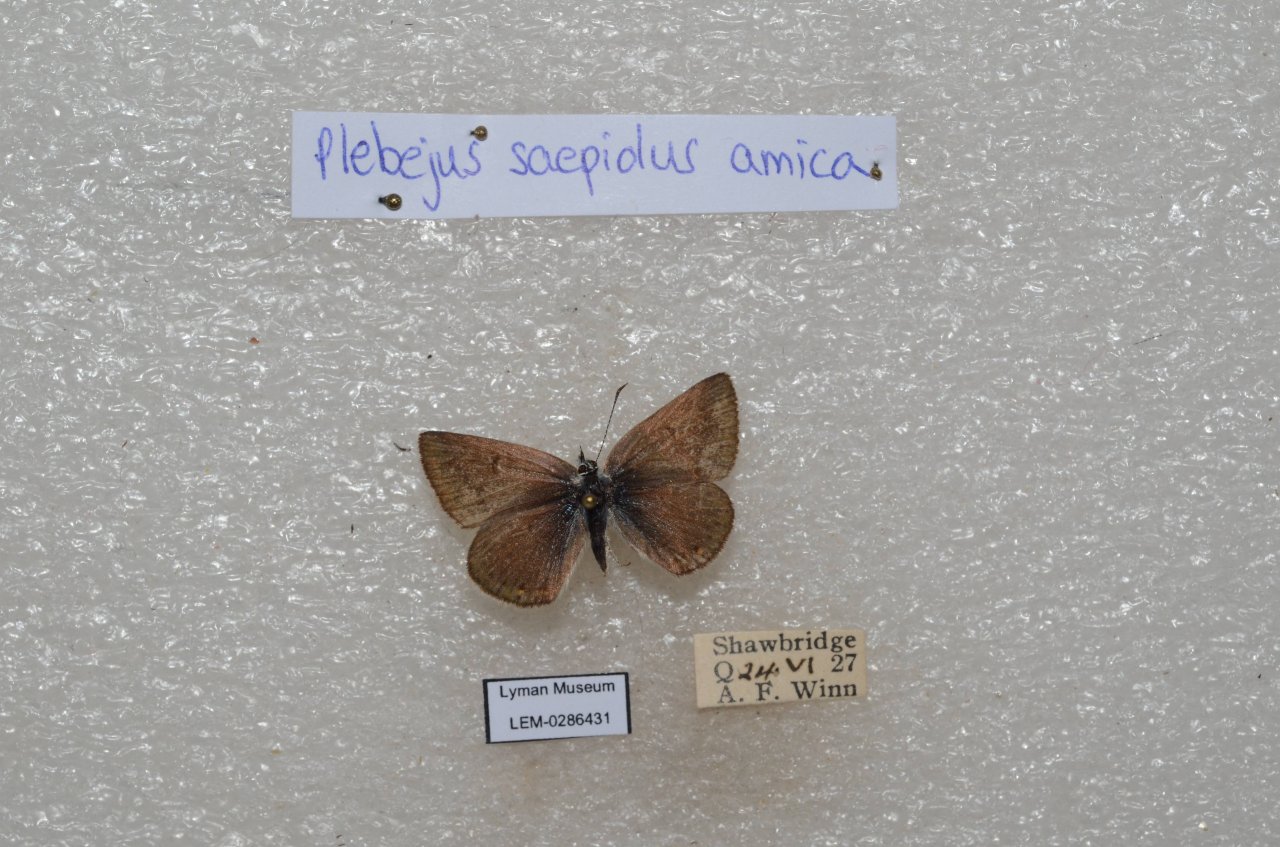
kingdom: Animalia
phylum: Arthropoda
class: Insecta
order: Lepidoptera
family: Lycaenidae
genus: Plebejus
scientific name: Plebejus saepiolus
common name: Greenish Blue
